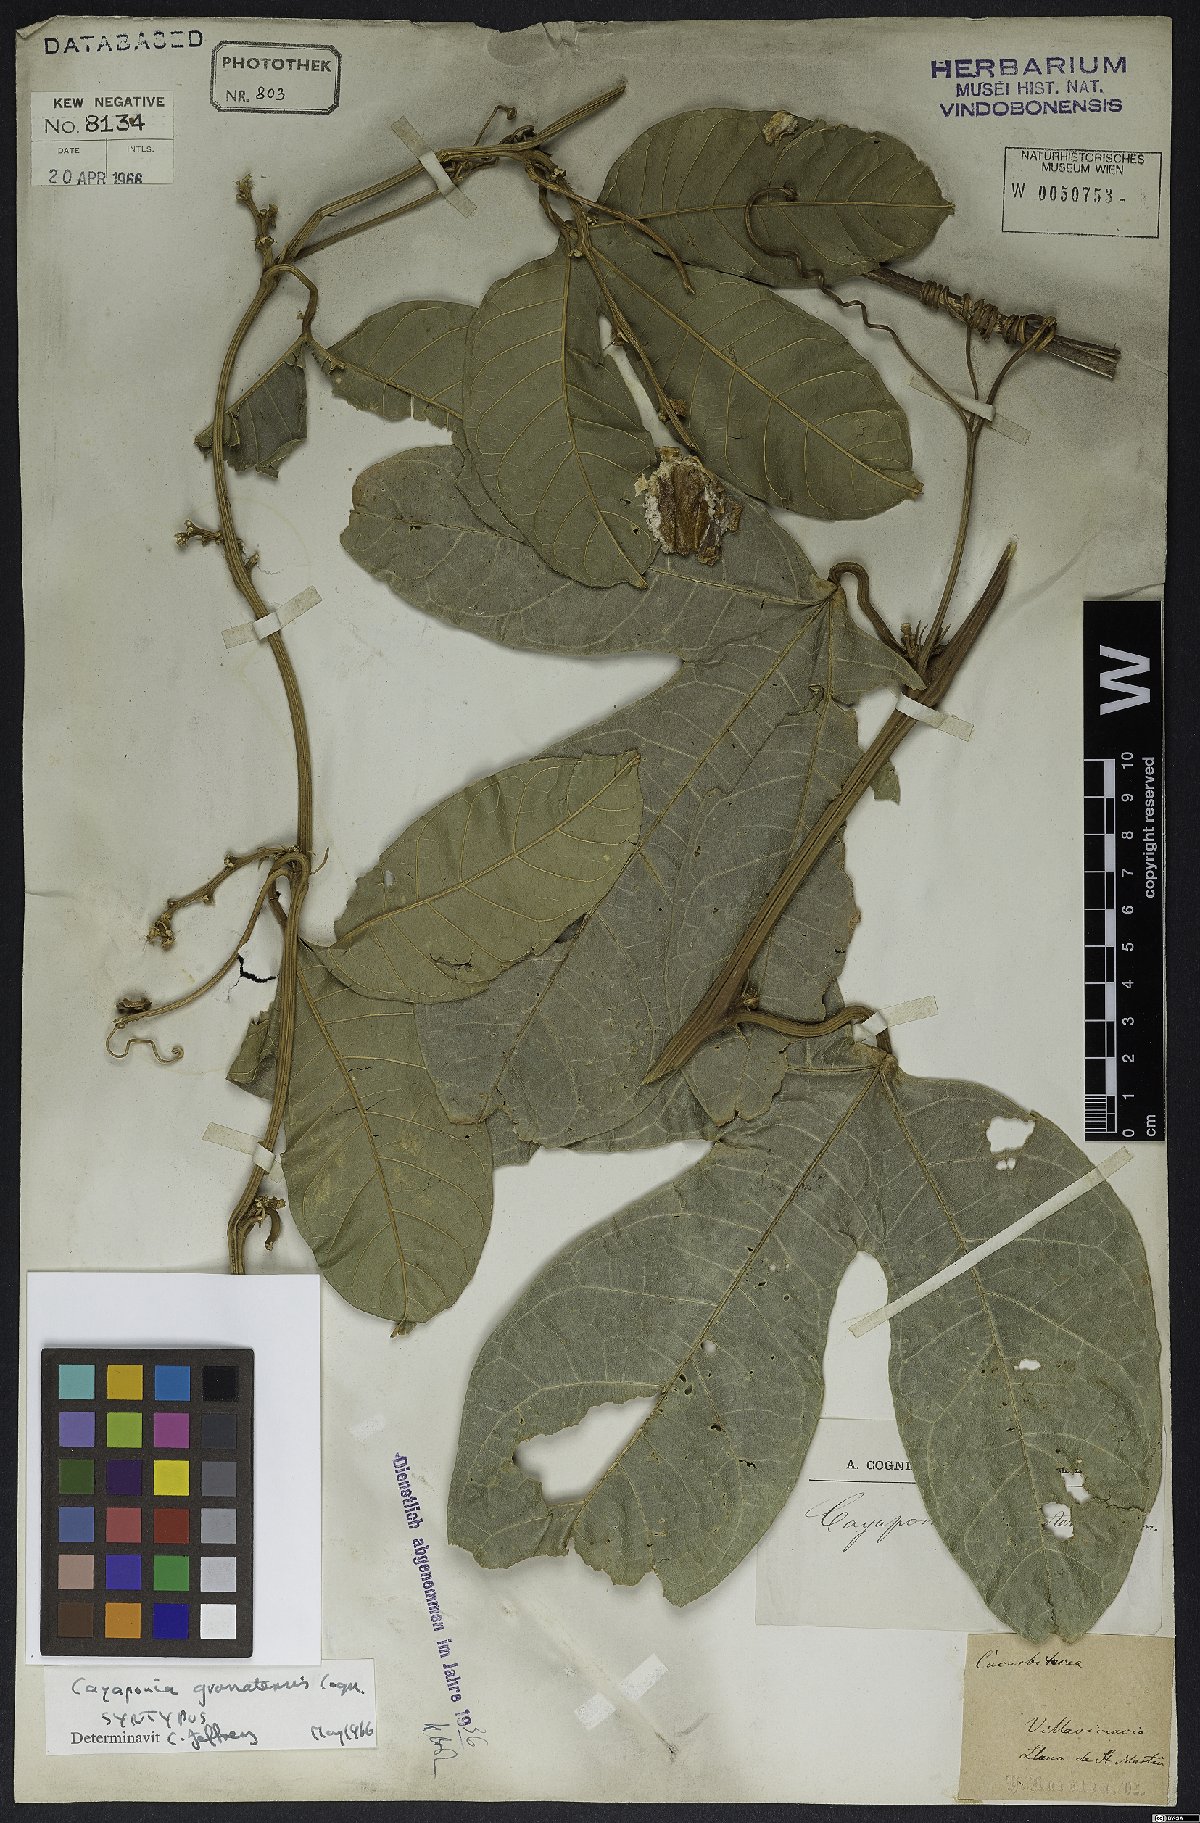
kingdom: Plantae
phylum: Tracheophyta
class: Magnoliopsida
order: Cucurbitales
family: Cucurbitaceae
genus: Cayaponia
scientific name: Cayaponia granatensis
